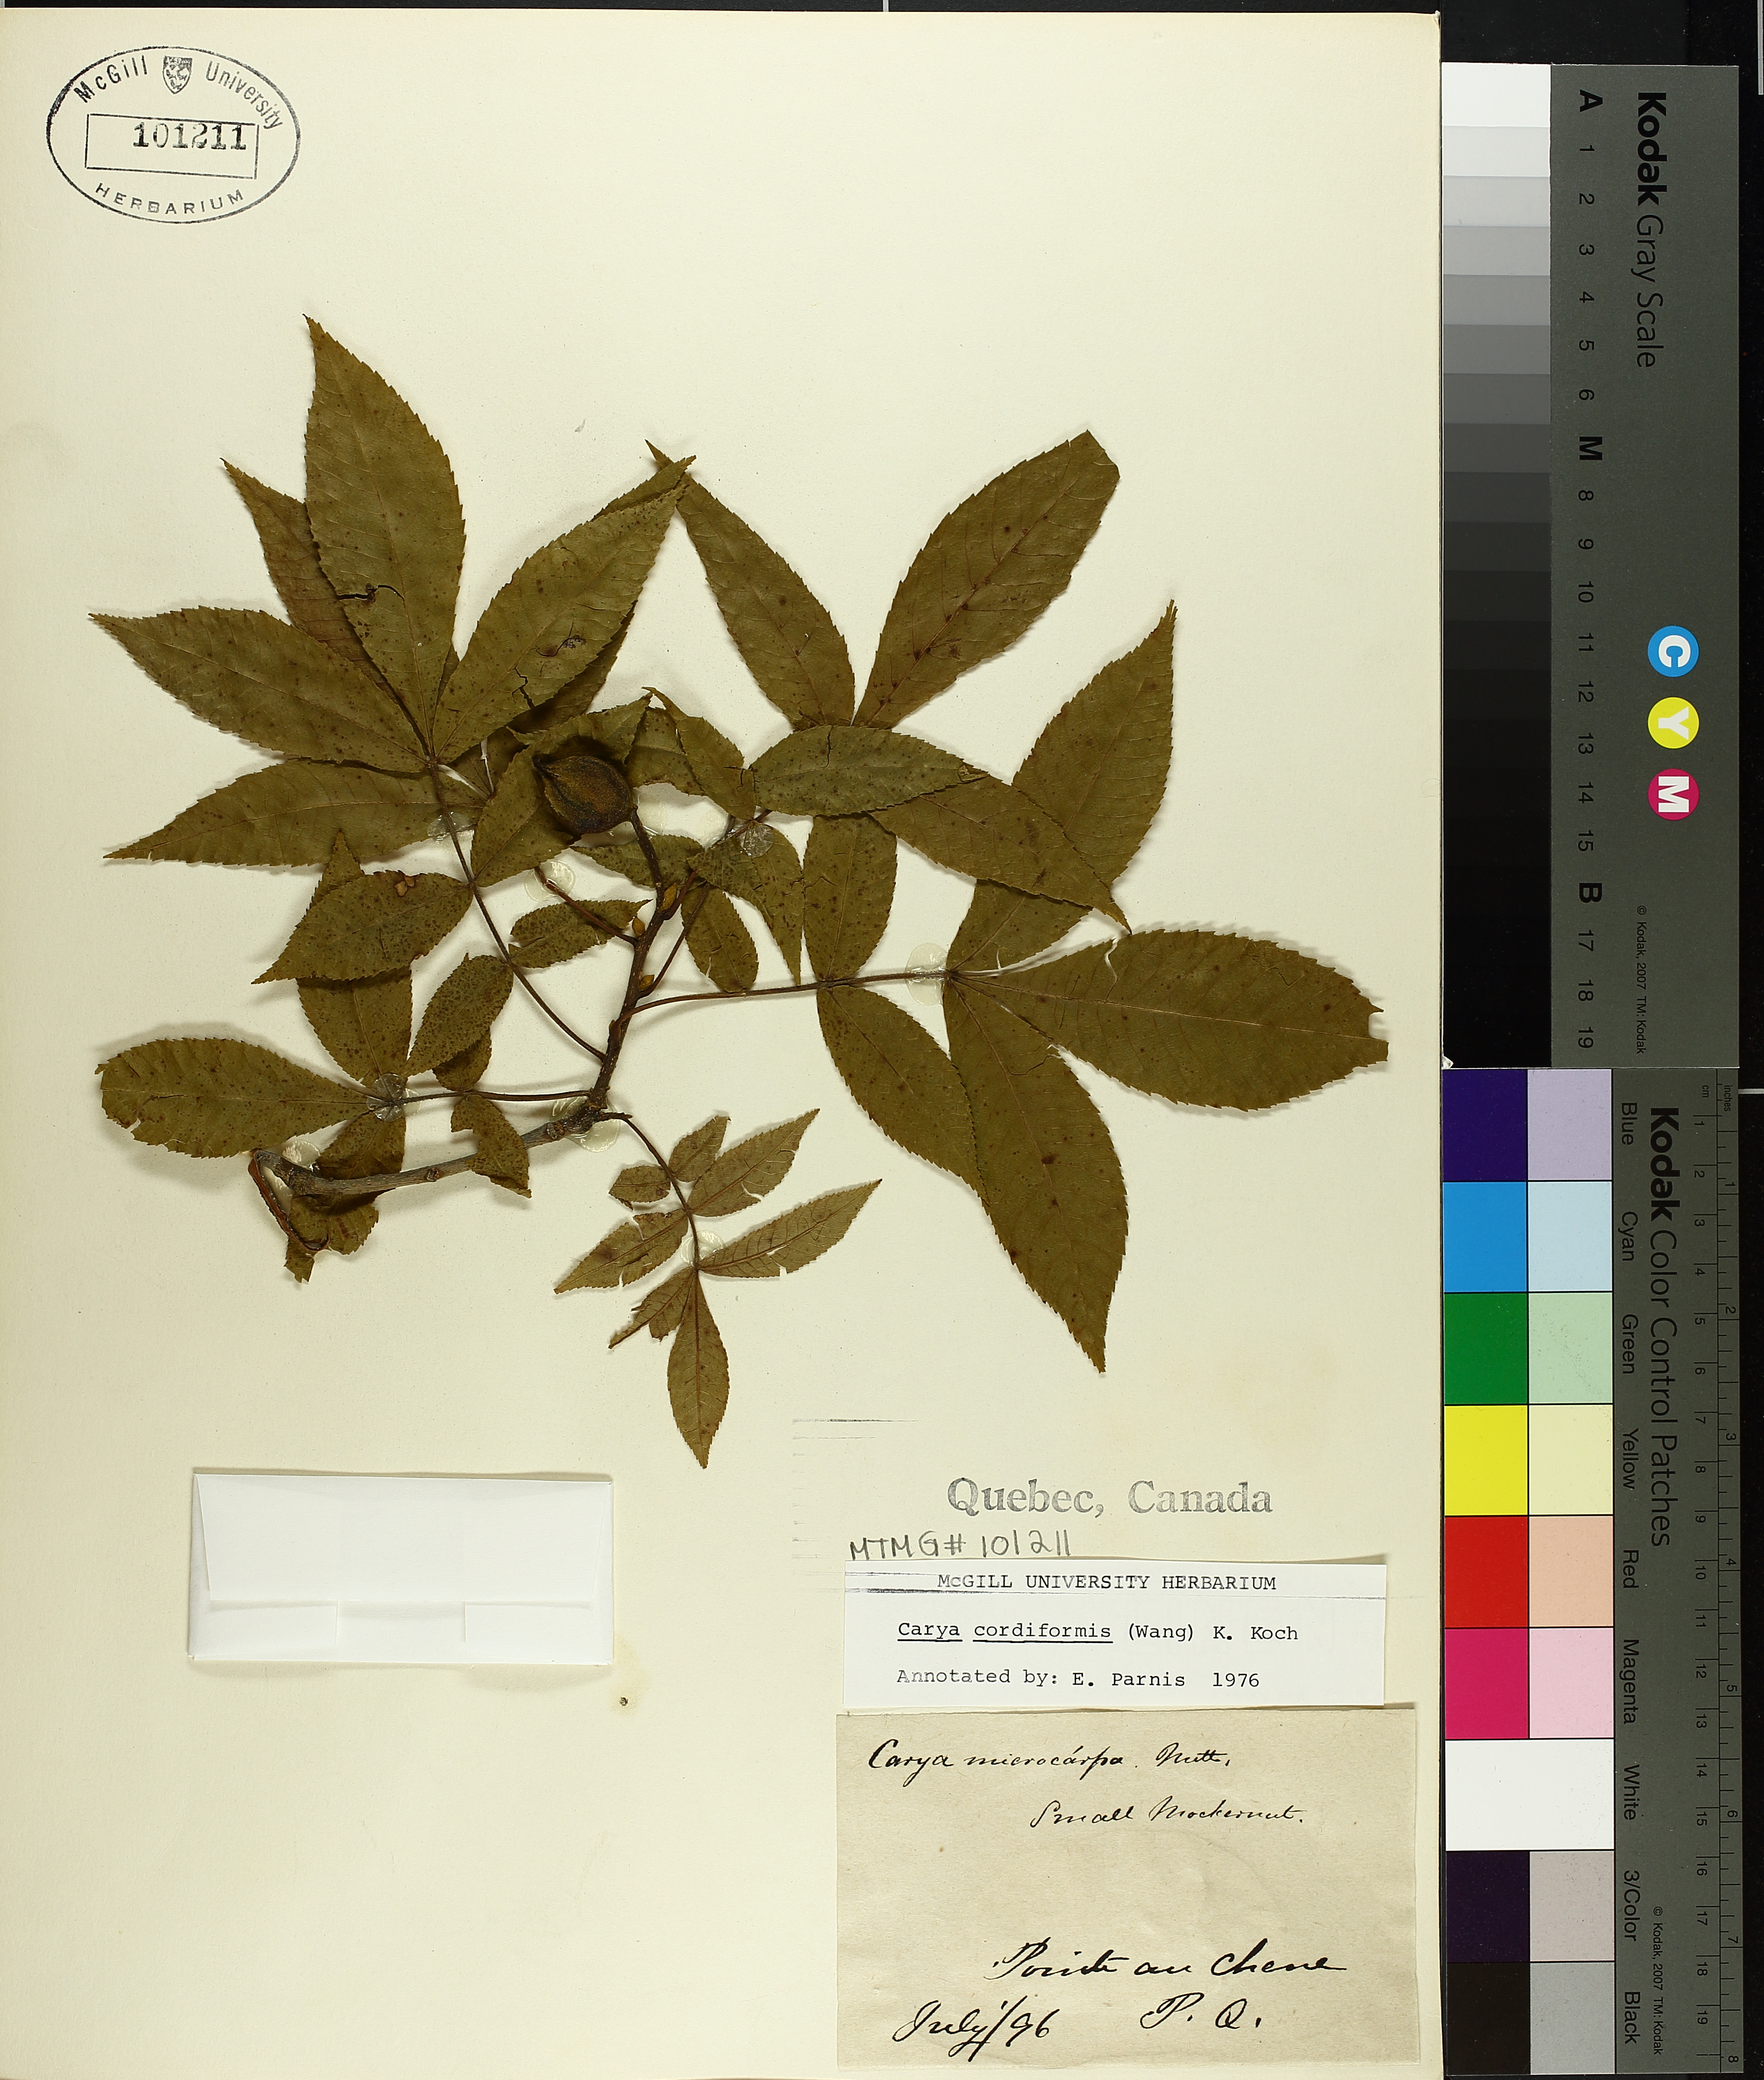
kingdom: Plantae
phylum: Tracheophyta
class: Magnoliopsida
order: Fagales
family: Juglandaceae
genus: Carya
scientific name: Carya cordiformis
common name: Bitternut hickory
